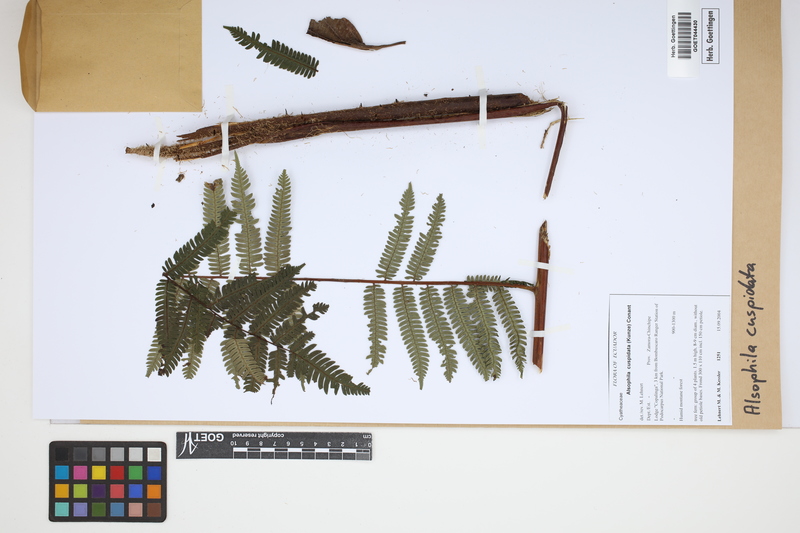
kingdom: Plantae
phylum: Tracheophyta
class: Polypodiopsida
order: Cyatheales
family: Cyatheaceae
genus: Alsophila
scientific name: Alsophila cuspidata
